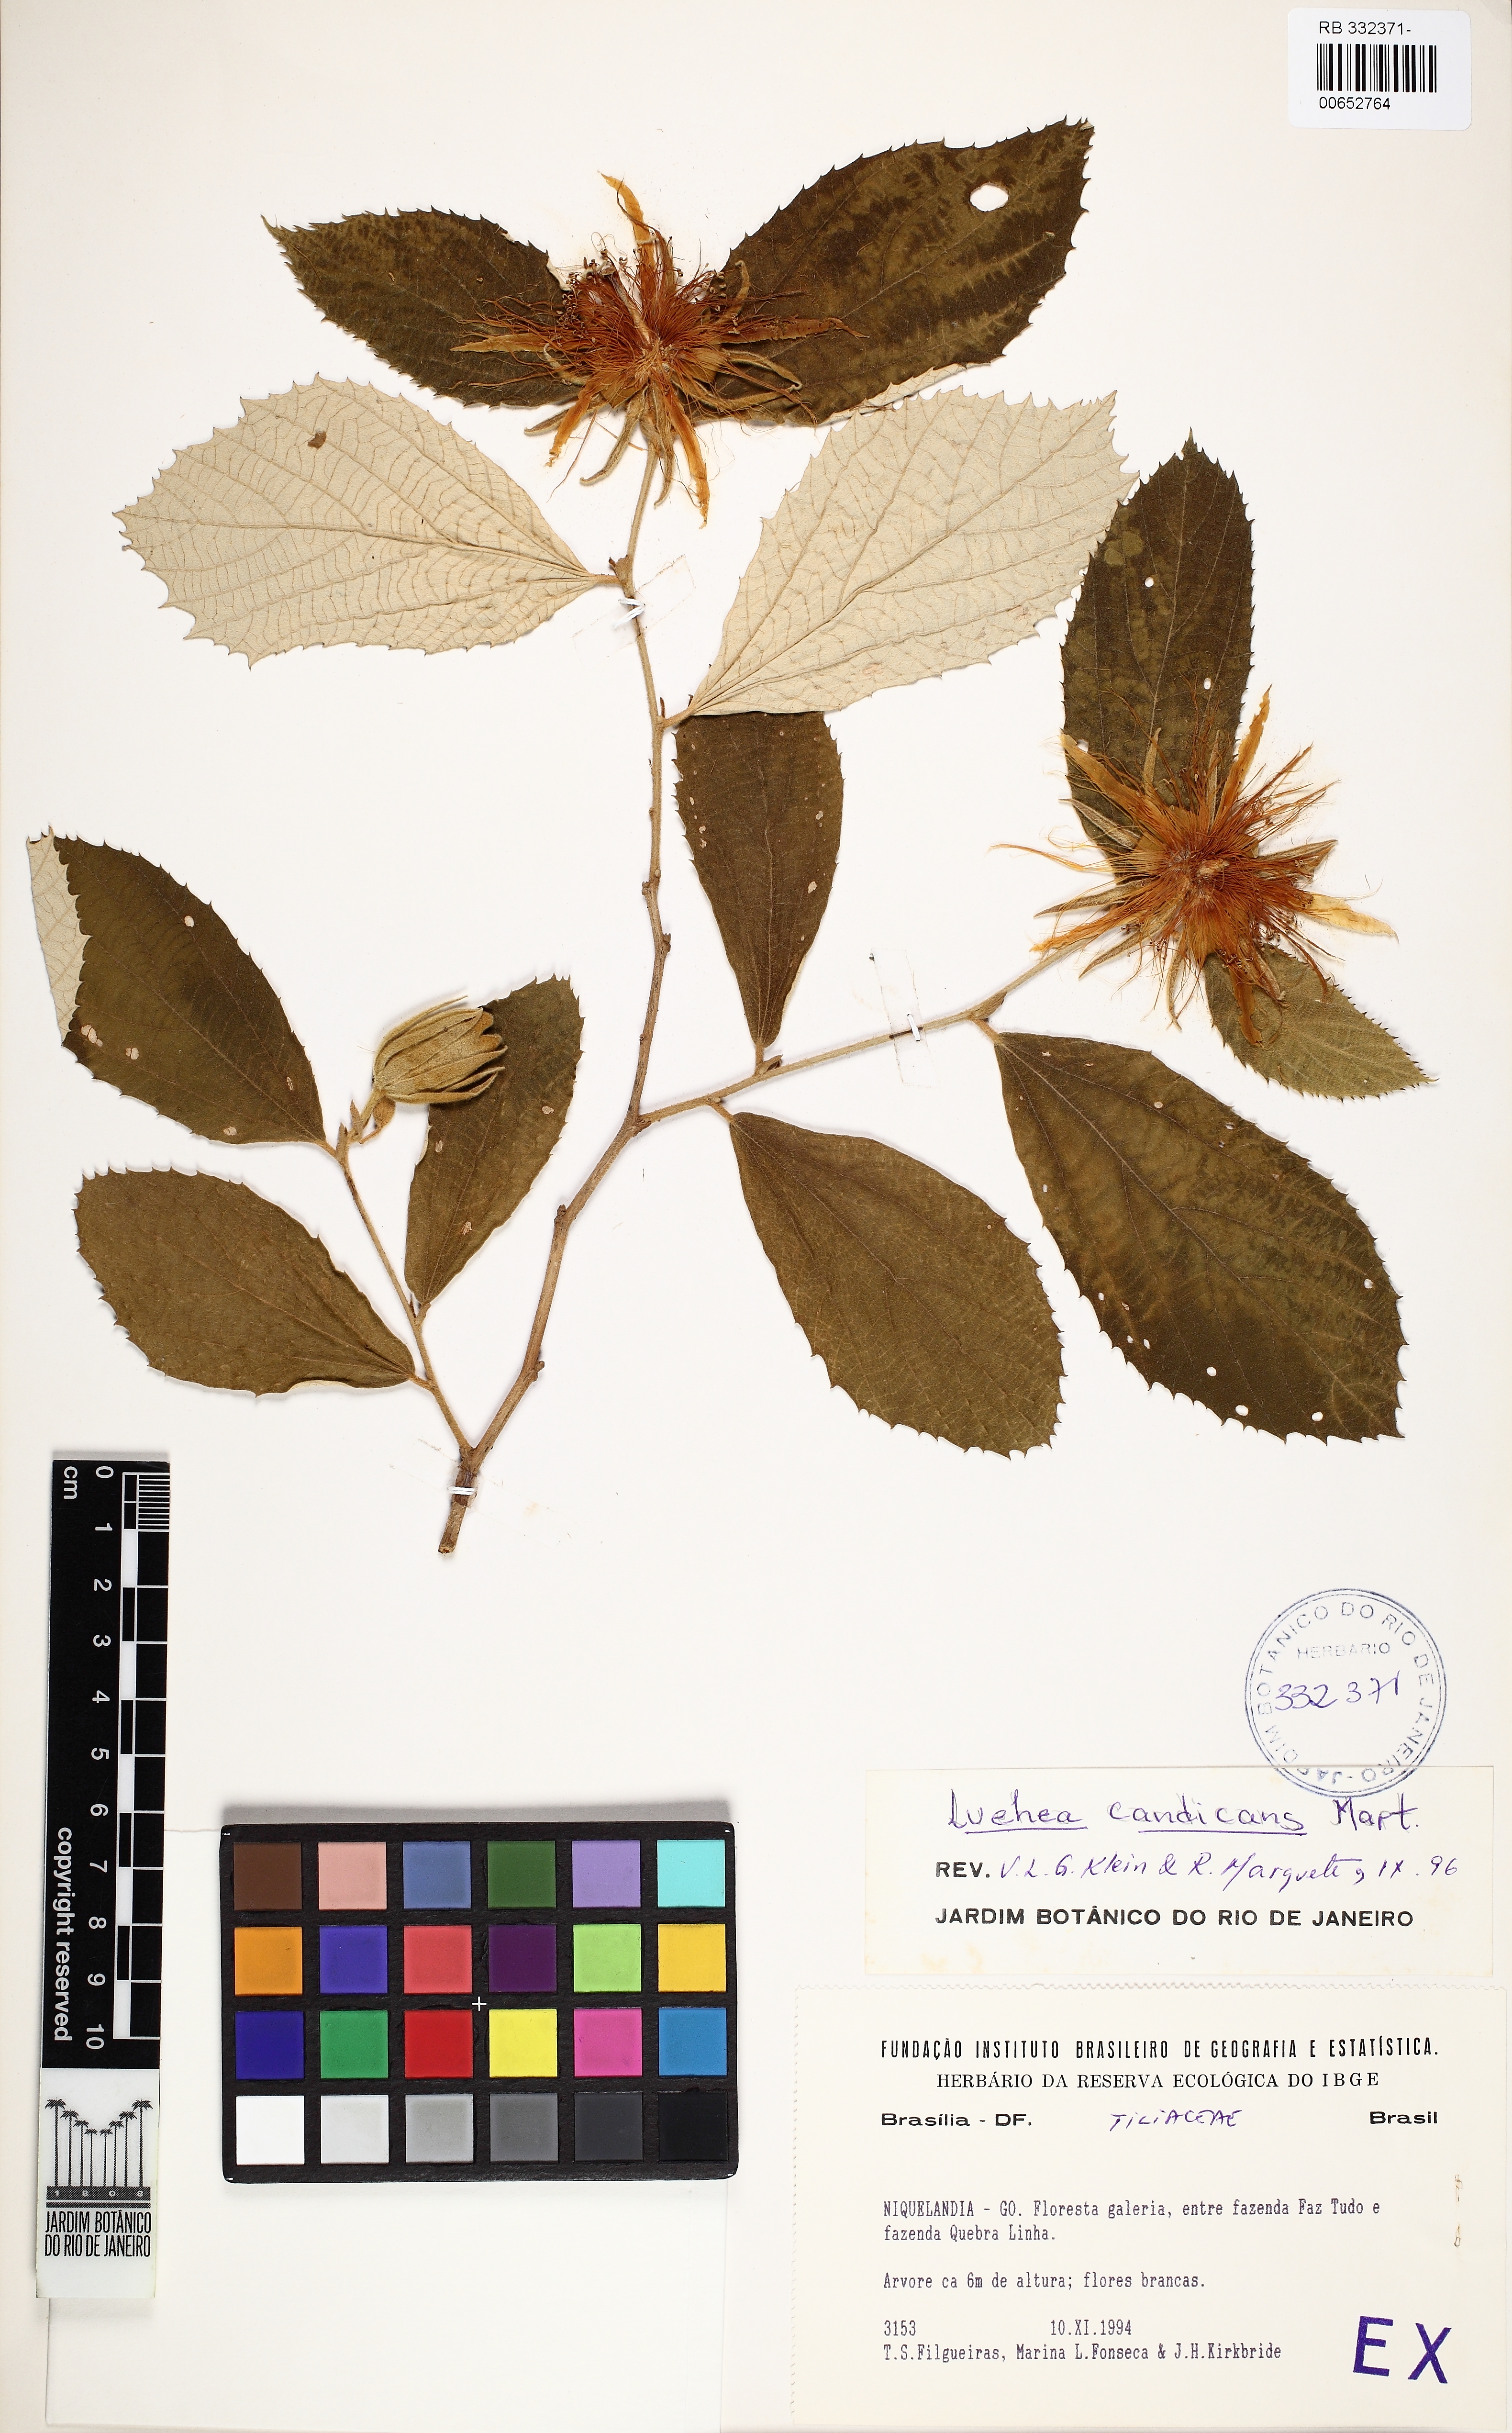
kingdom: Plantae
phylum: Tracheophyta
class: Magnoliopsida
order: Malvales
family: Malvaceae
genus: Luehea
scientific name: Luehea candicans
